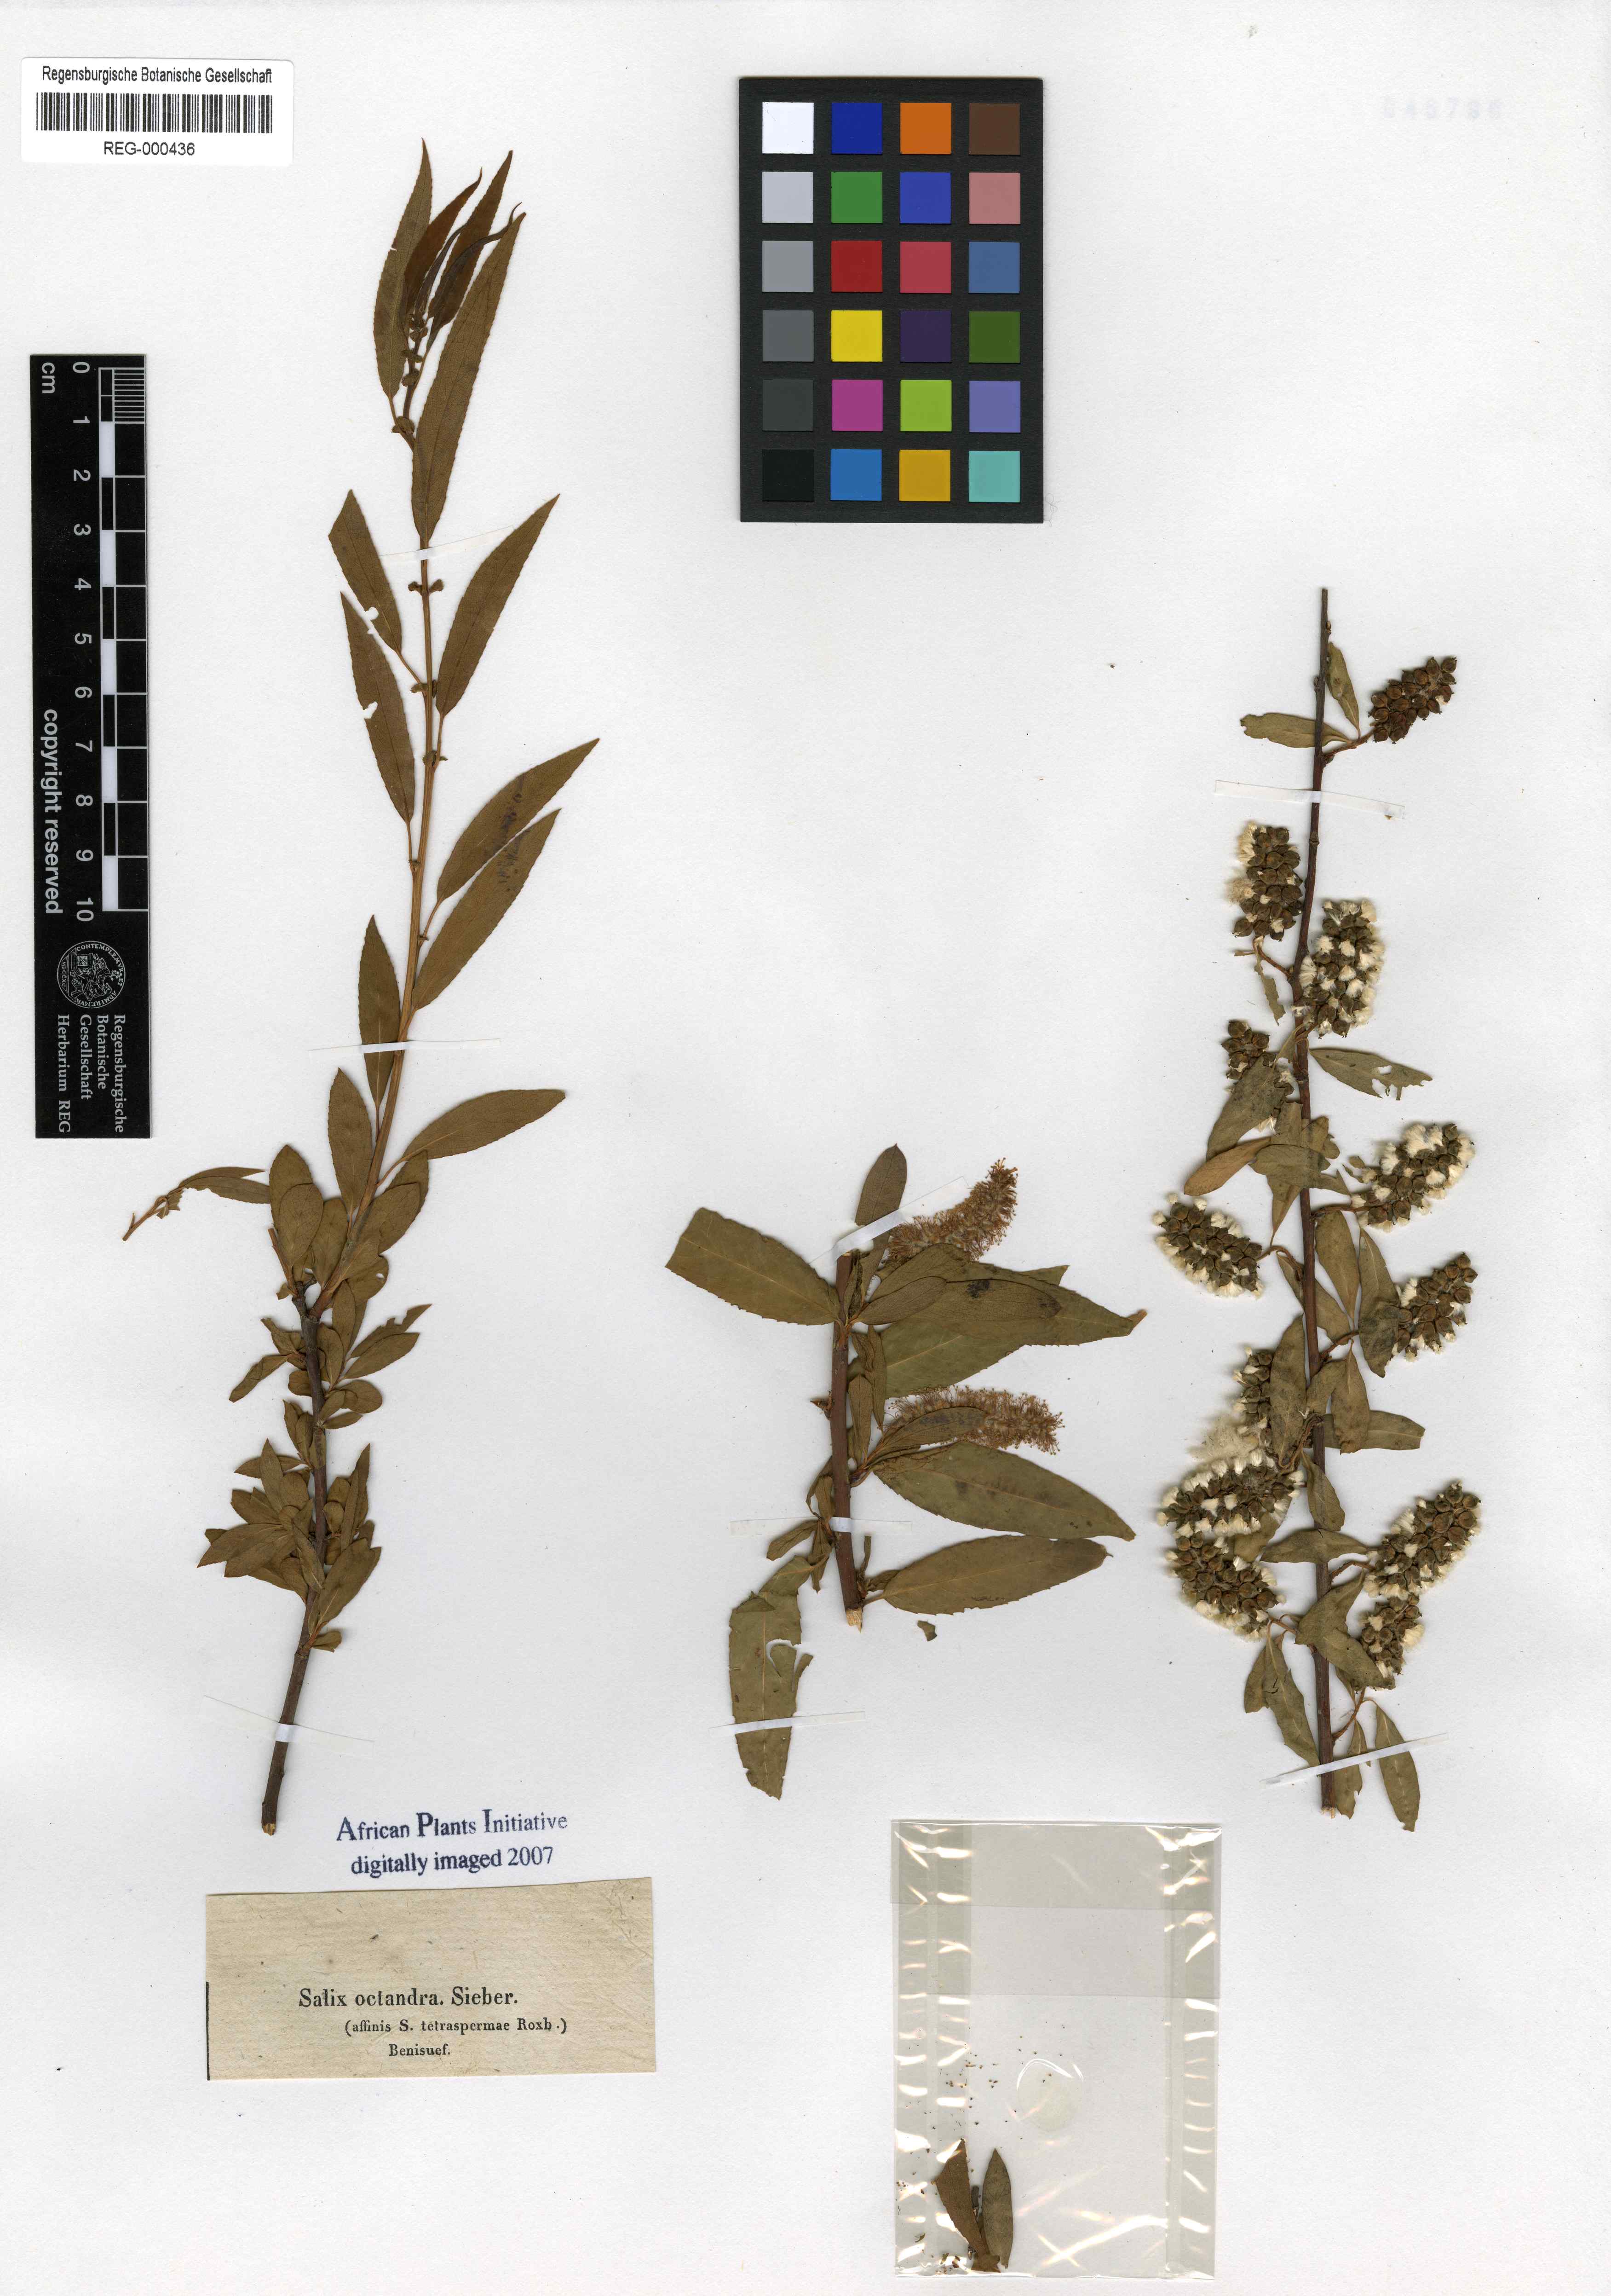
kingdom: Plantae
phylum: Tracheophyta
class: Magnoliopsida
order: Malpighiales
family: Salicaceae
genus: Salix
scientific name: Salix mucronata
